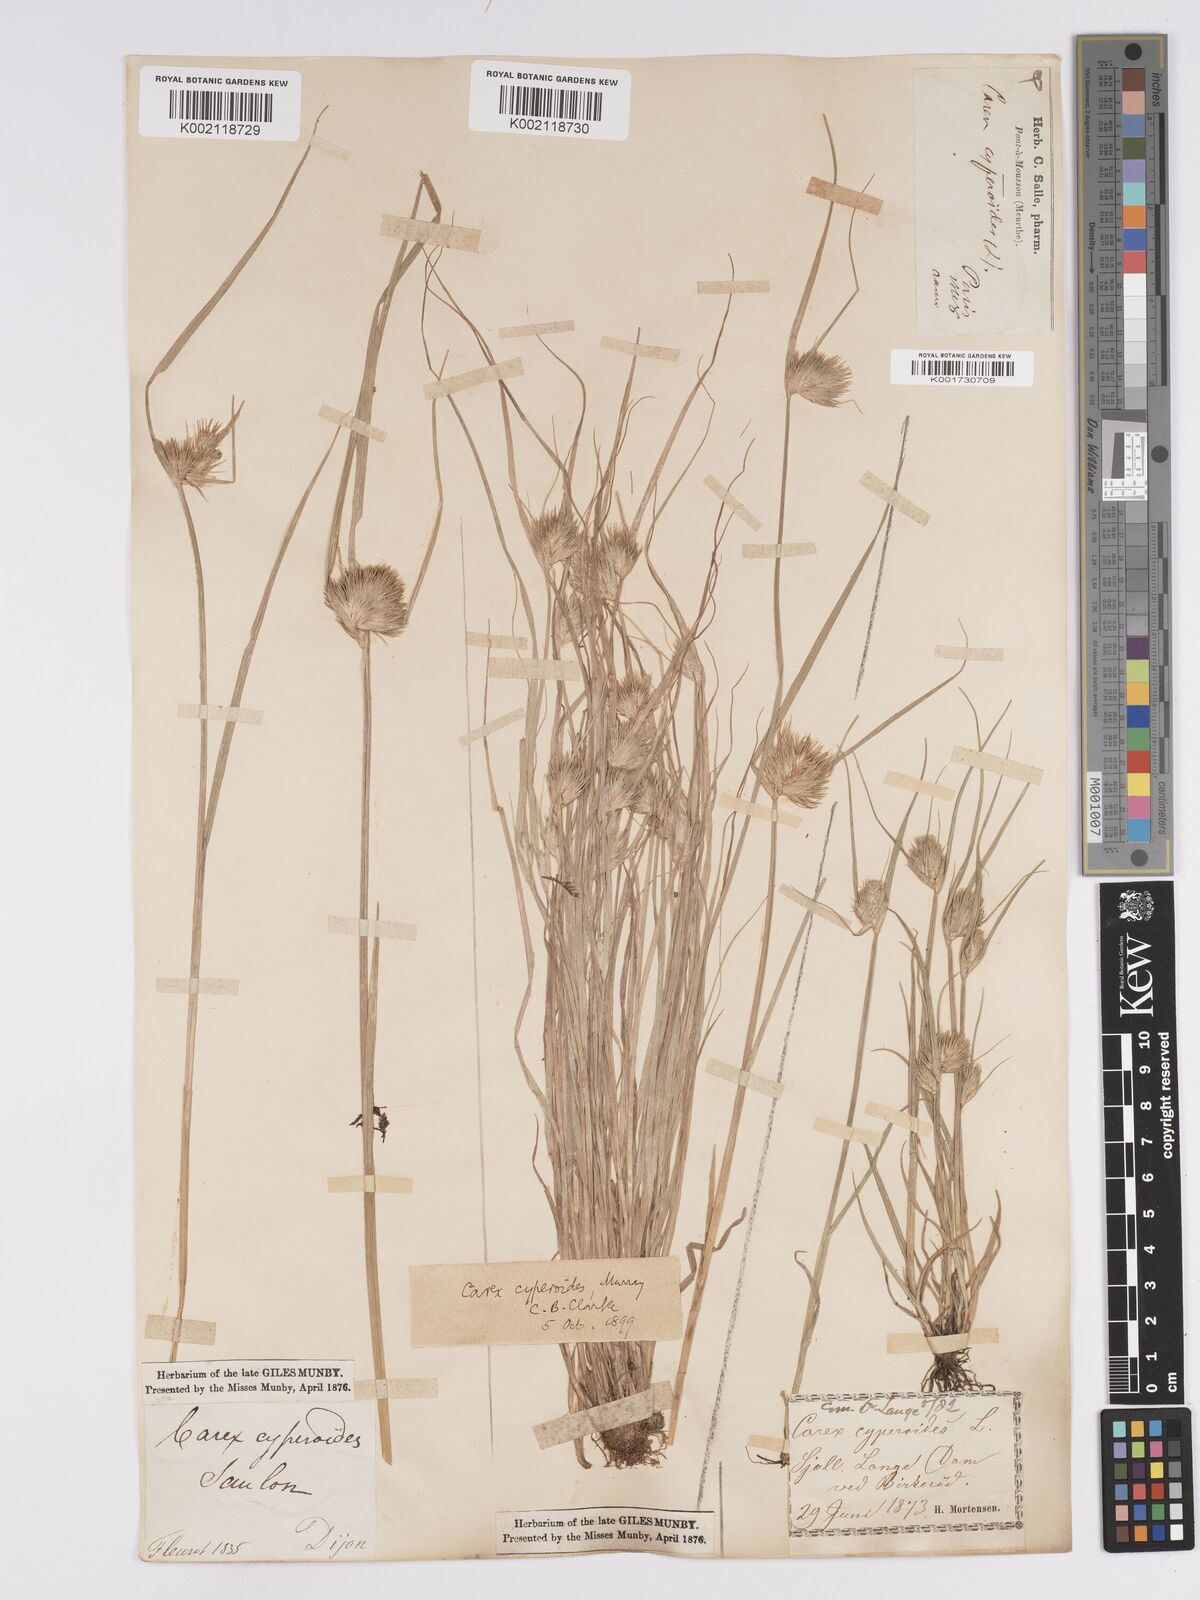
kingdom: Plantae
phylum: Tracheophyta
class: Liliopsida
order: Poales
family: Cyperaceae
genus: Carex
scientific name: Carex bohemica
